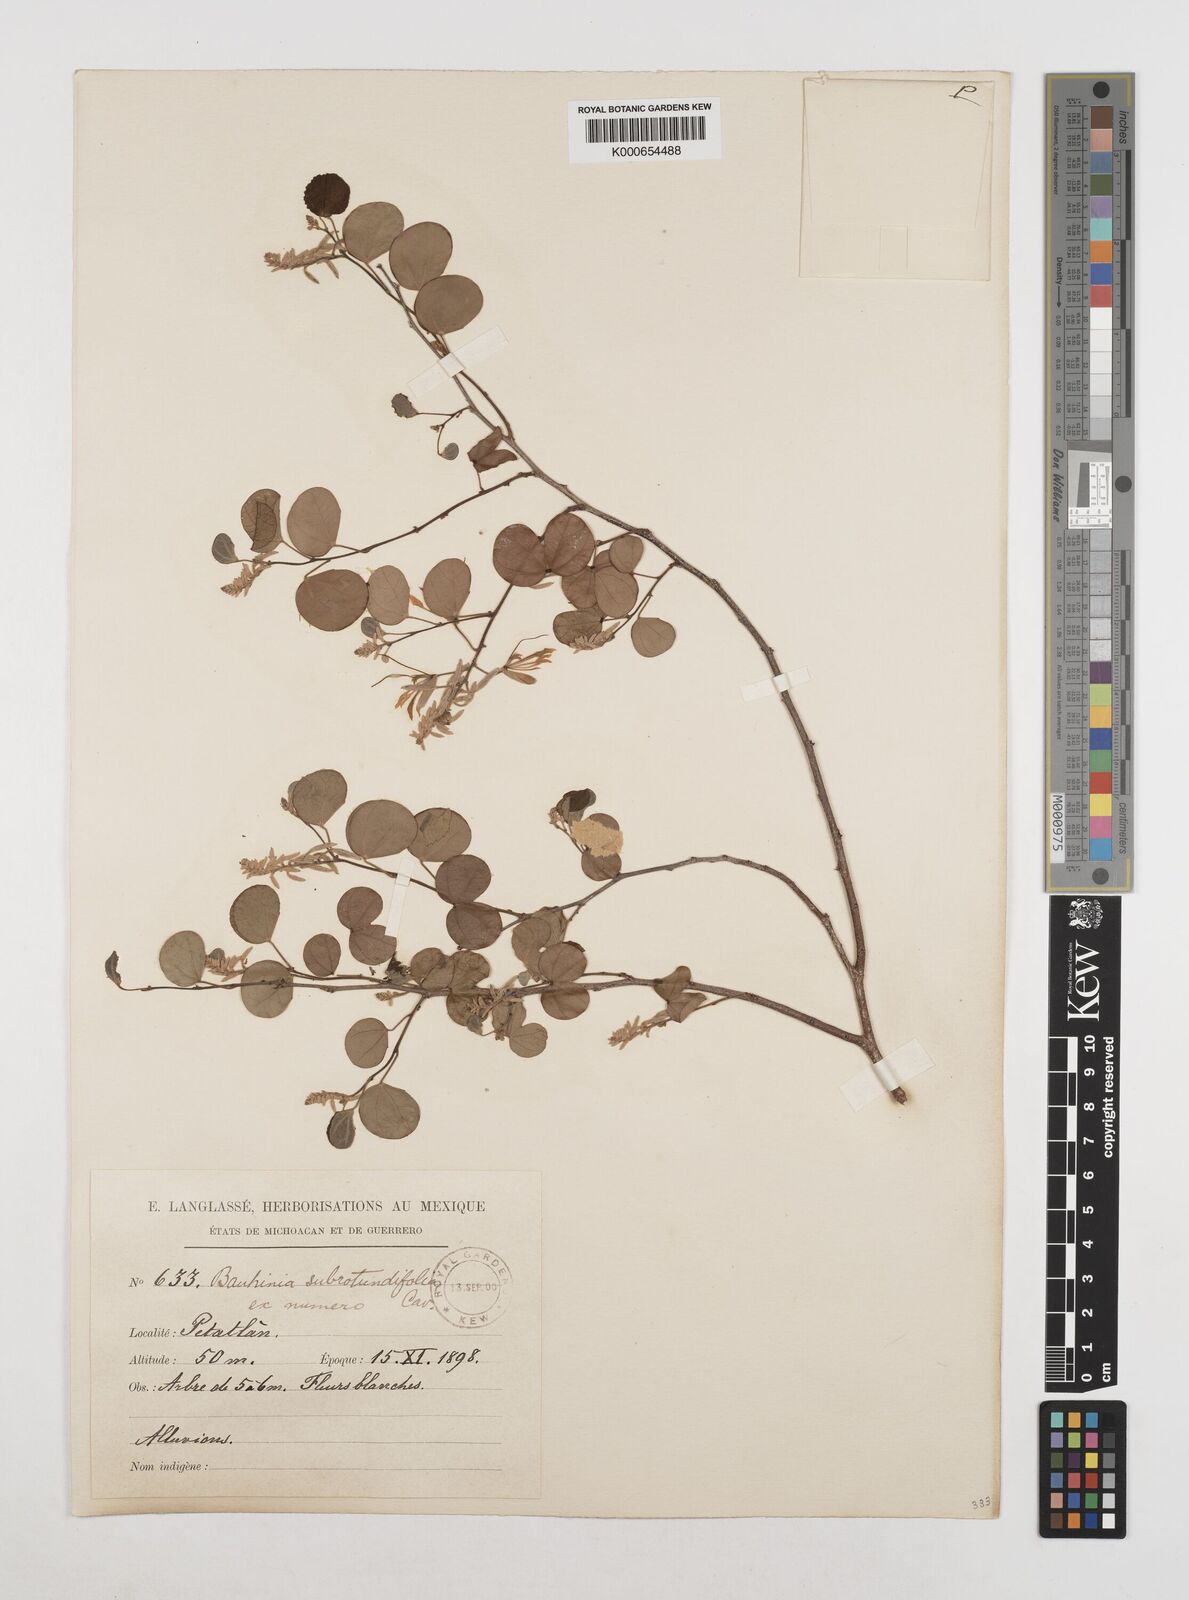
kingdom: Plantae
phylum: Tracheophyta
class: Magnoliopsida
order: Fabales
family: Fabaceae
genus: Bauhinia
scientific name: Bauhinia subrotundifolia
